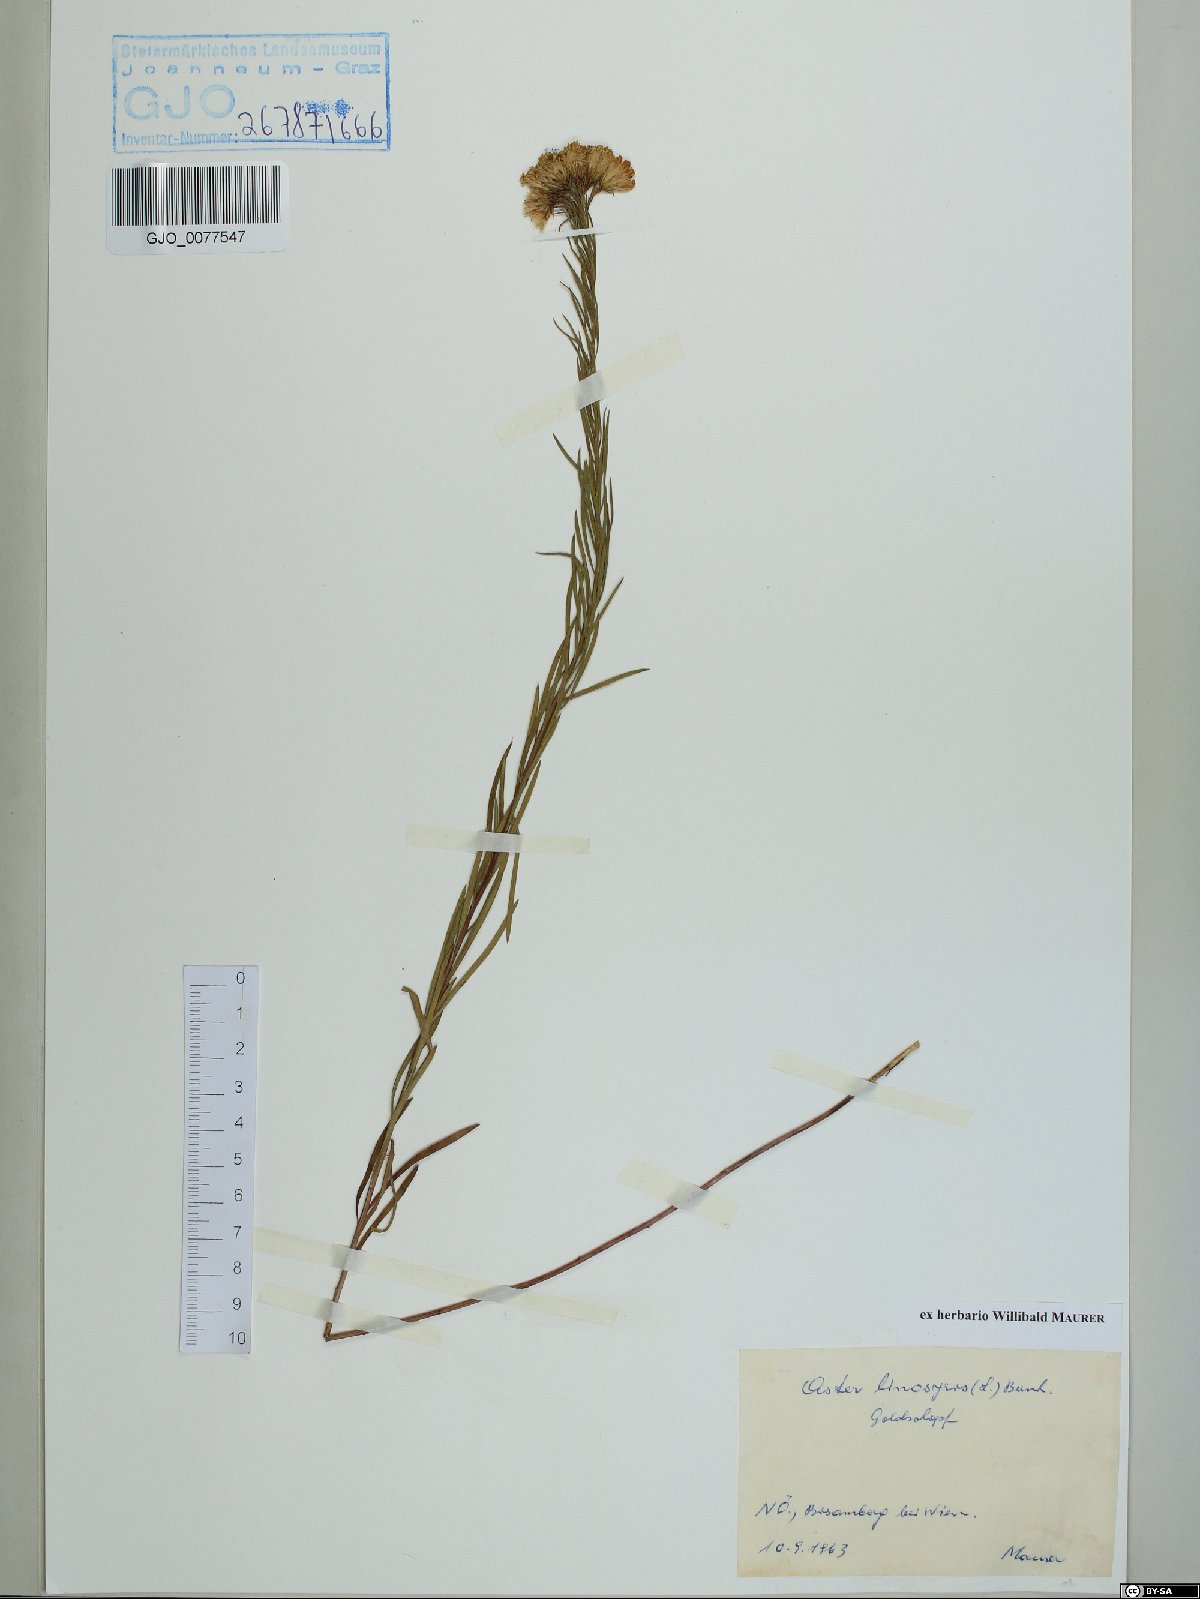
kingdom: Plantae
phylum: Tracheophyta
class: Magnoliopsida
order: Asterales
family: Asteraceae
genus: Galatella
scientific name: Galatella linosyris
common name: Goldilocks aster
